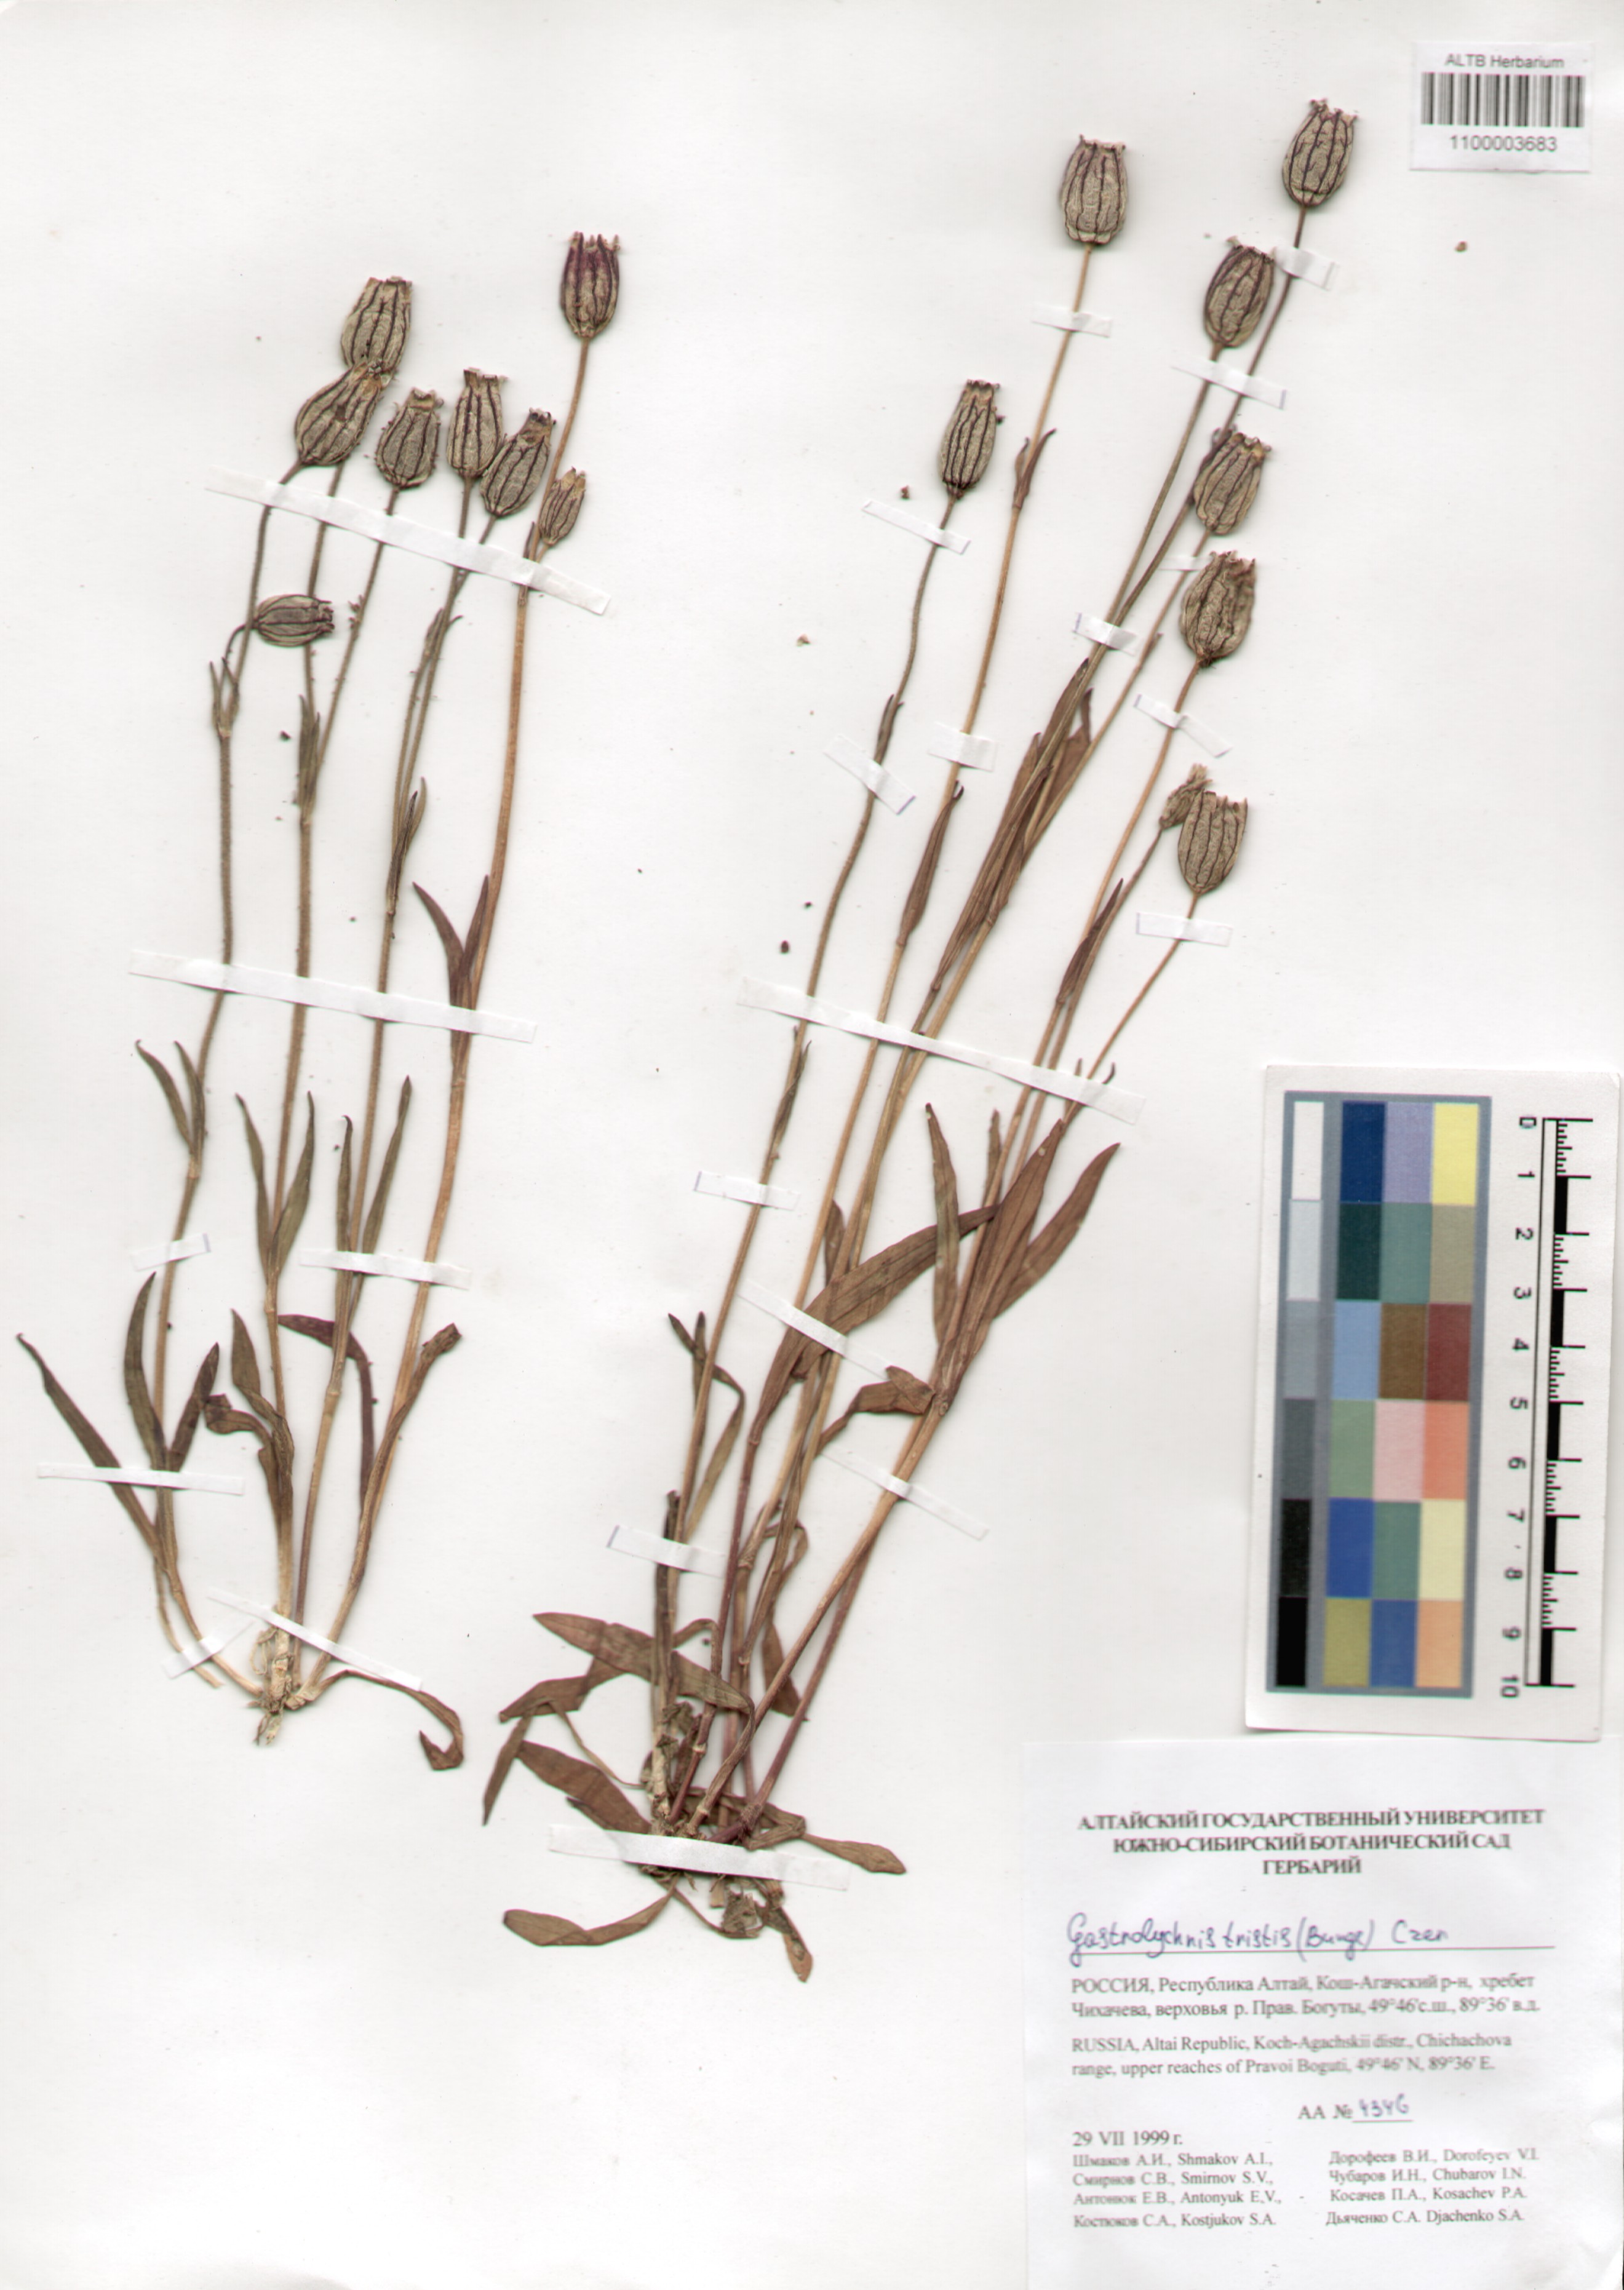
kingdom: Plantae
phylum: Tracheophyta
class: Magnoliopsida
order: Caryophyllales
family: Caryophyllaceae
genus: Silene
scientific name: Silene bungei
